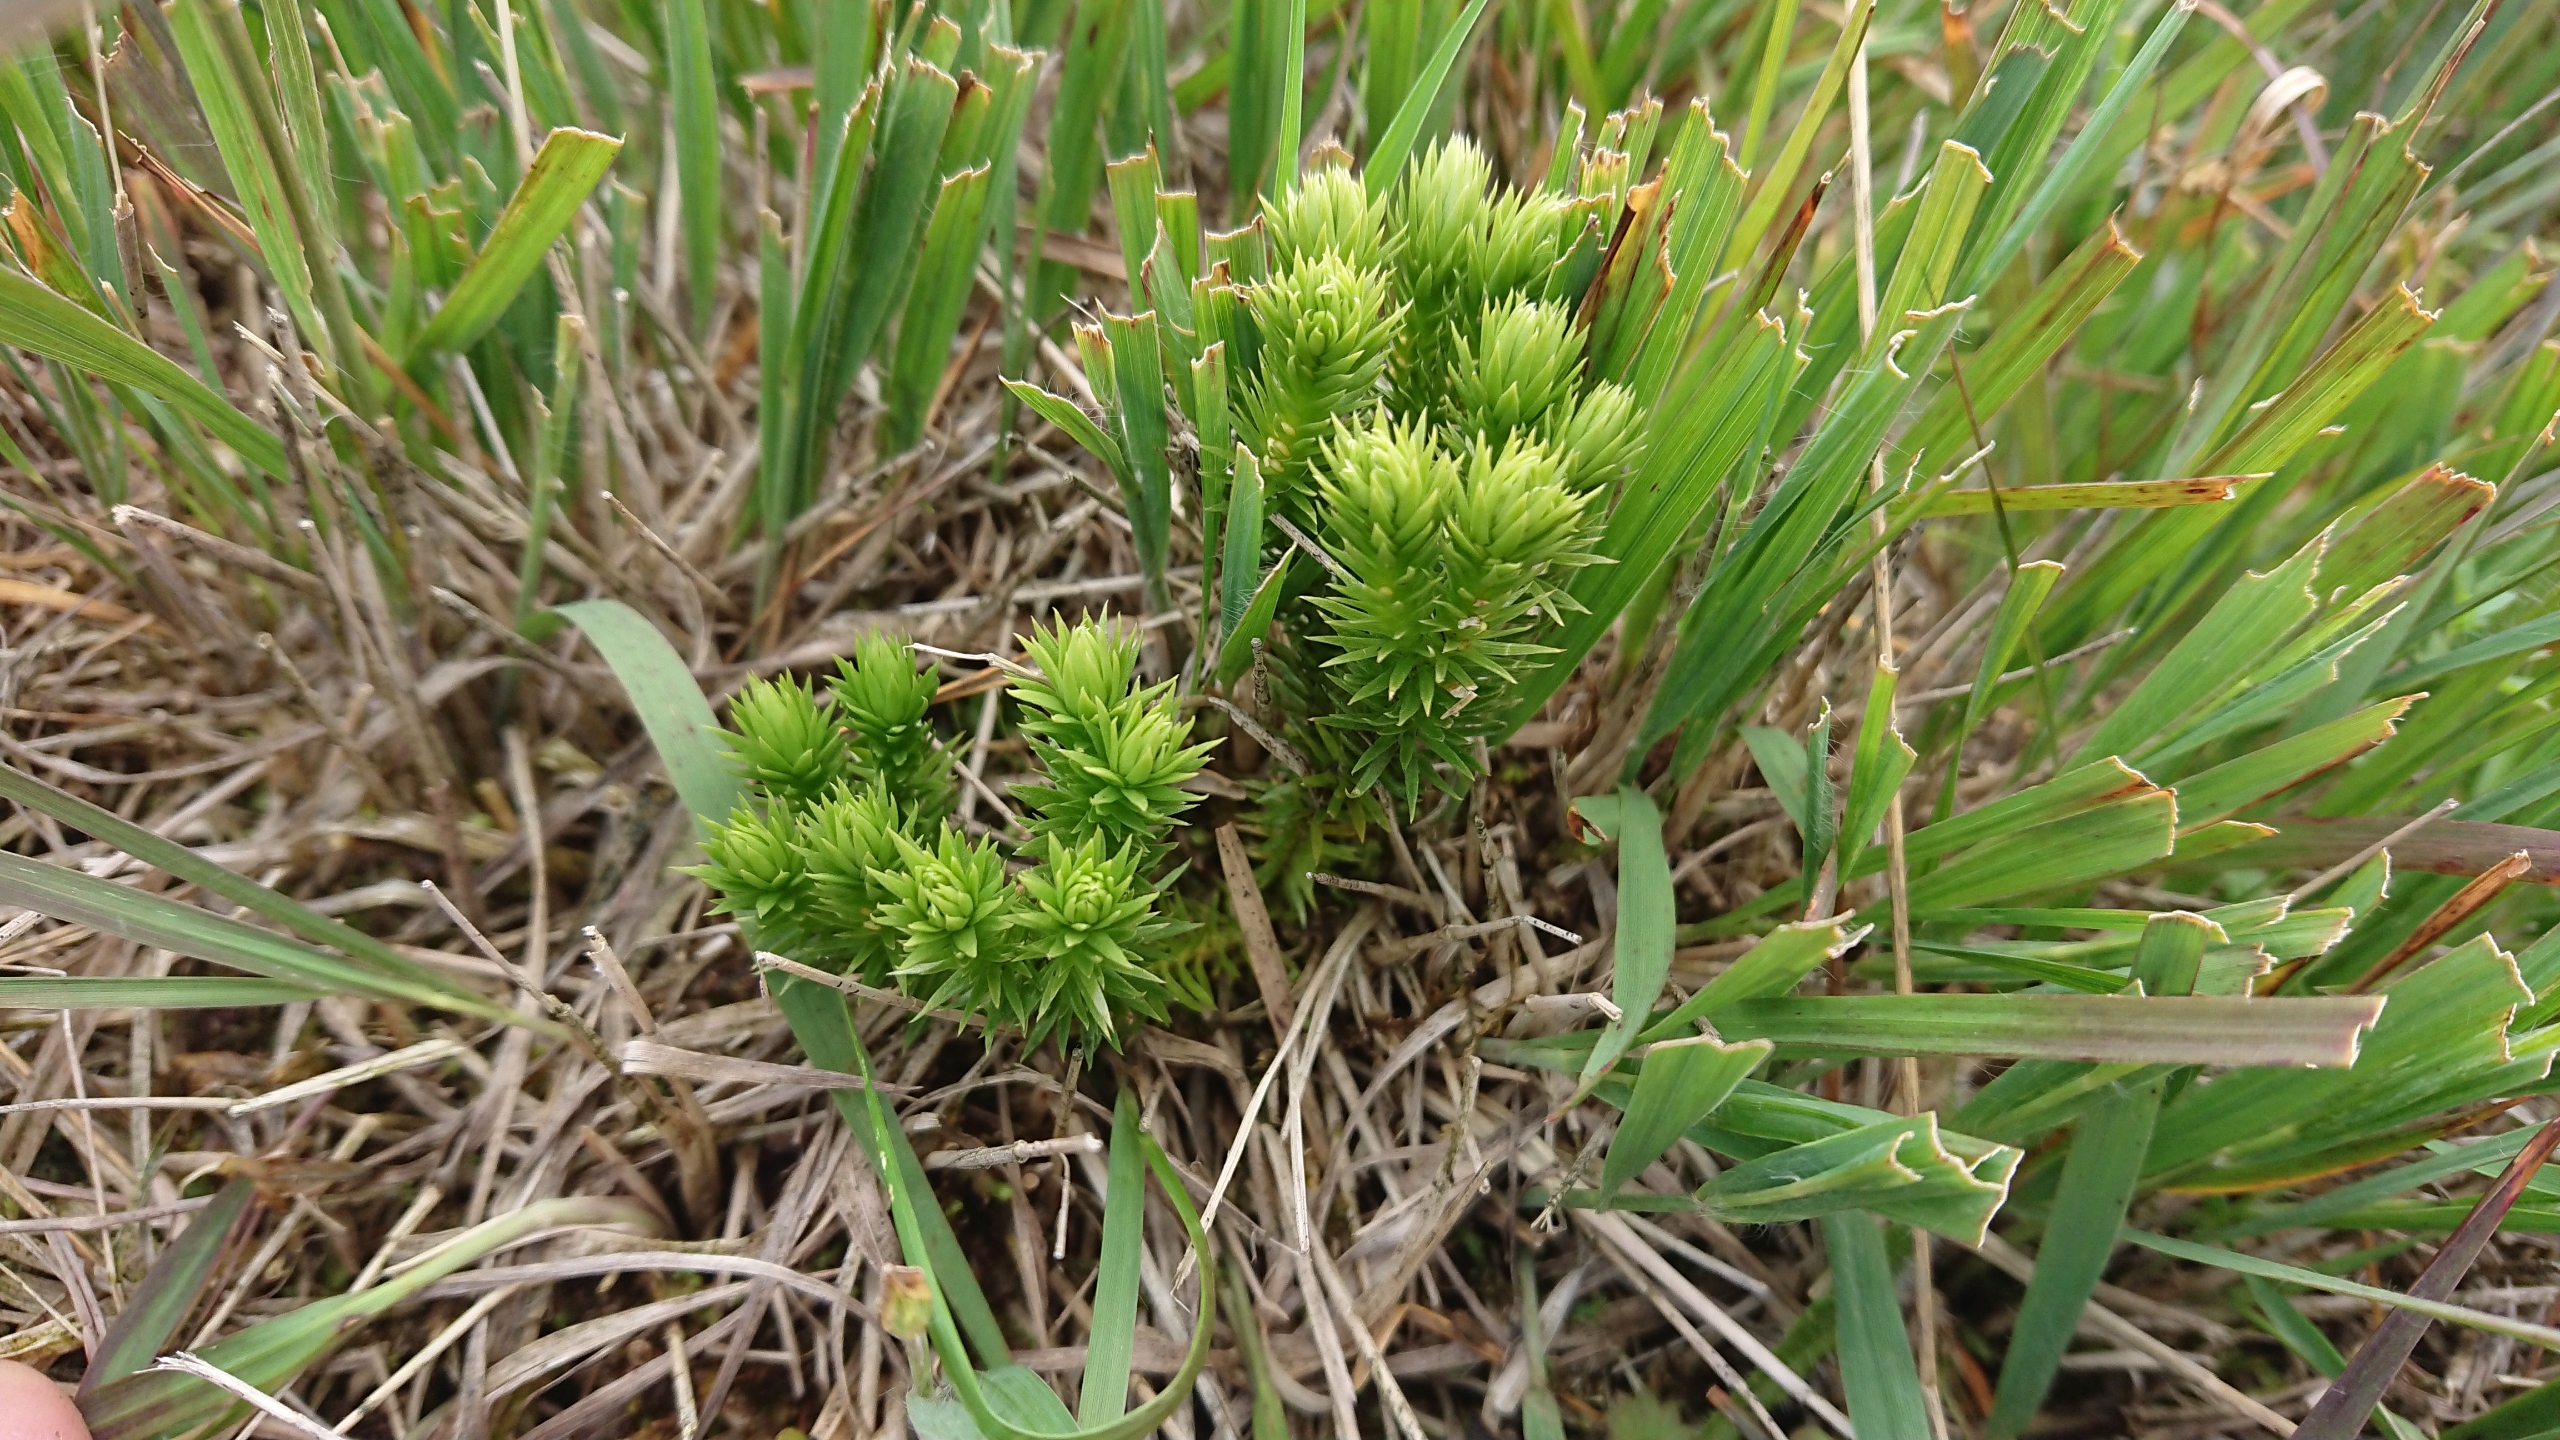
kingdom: Plantae
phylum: Tracheophyta
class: Lycopodiopsida
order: Lycopodiales
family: Lycopodiaceae
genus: Huperzia
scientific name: Huperzia selago
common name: Otteradet ulvefod
